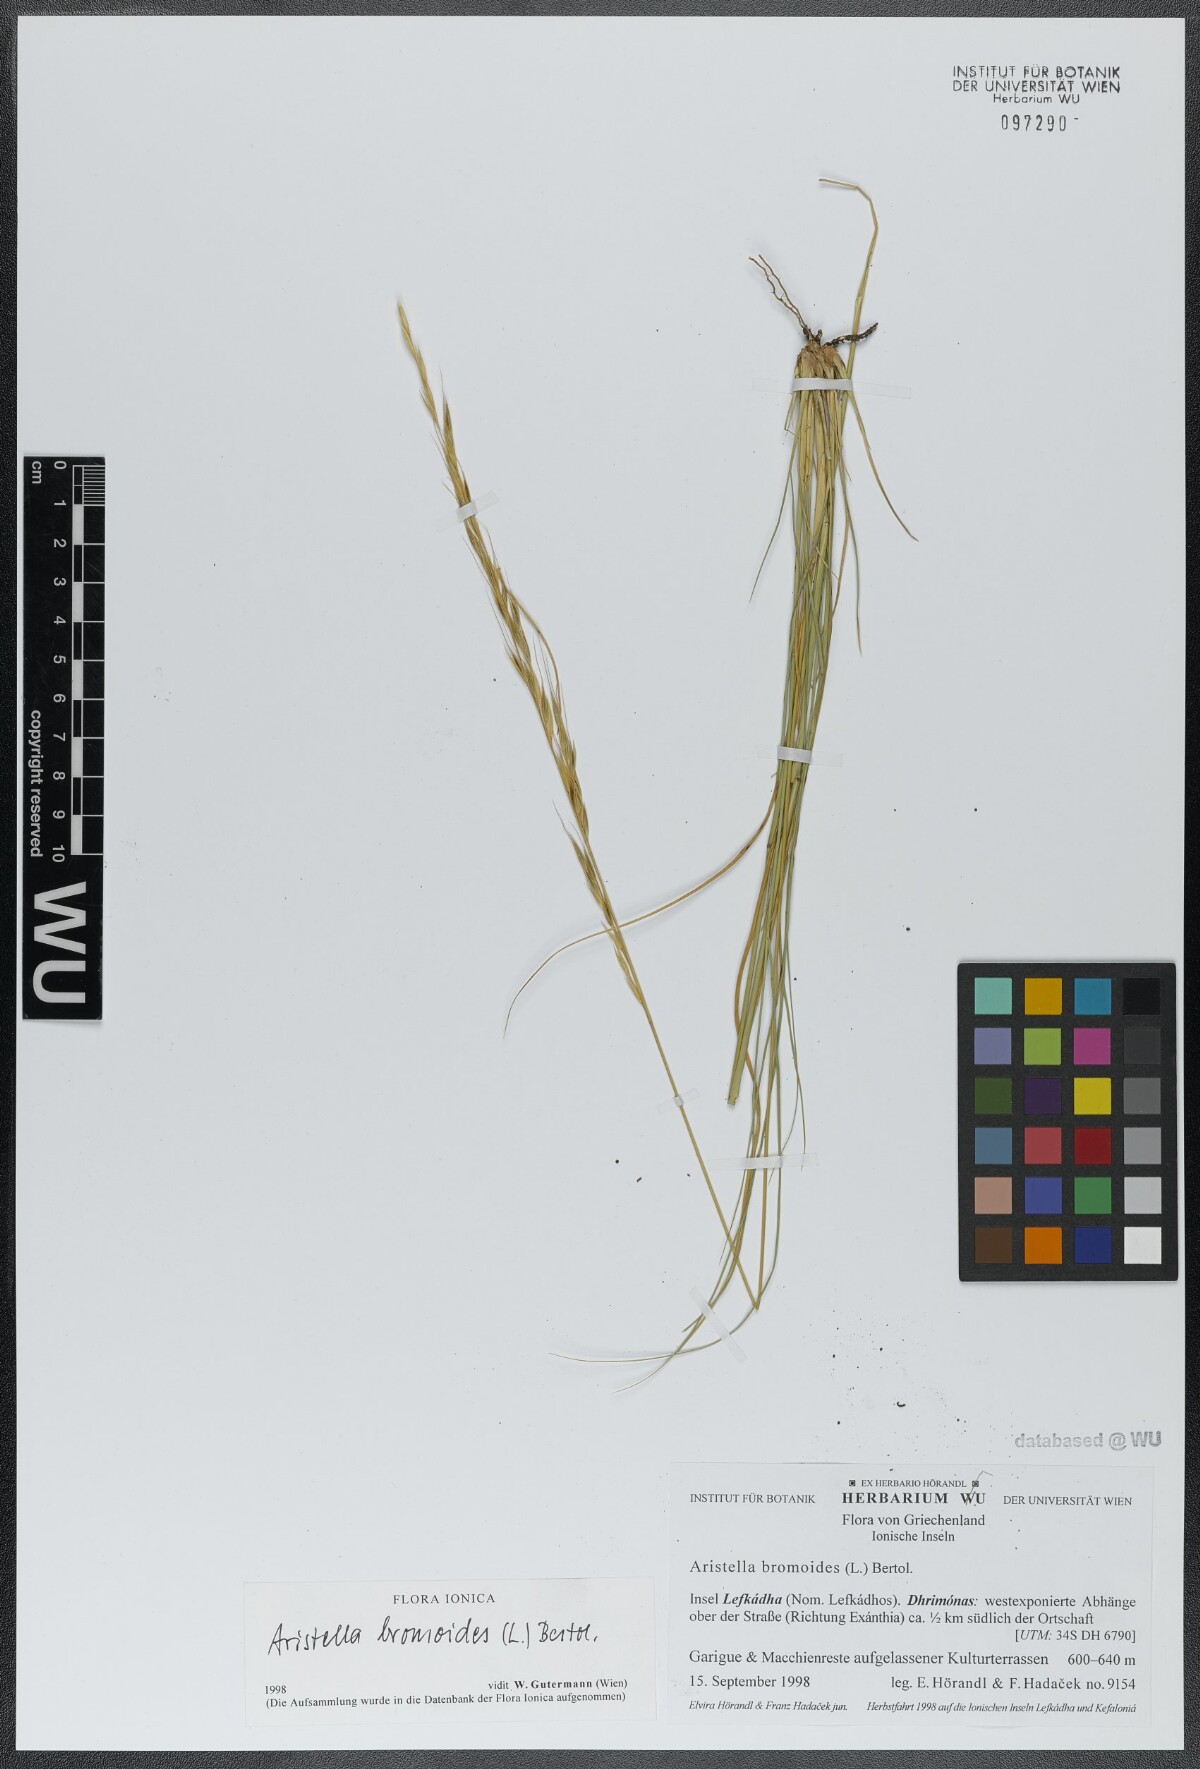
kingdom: Plantae
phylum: Tracheophyta
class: Liliopsida
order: Poales
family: Poaceae
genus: Achnatherum
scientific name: Achnatherum bromoides
